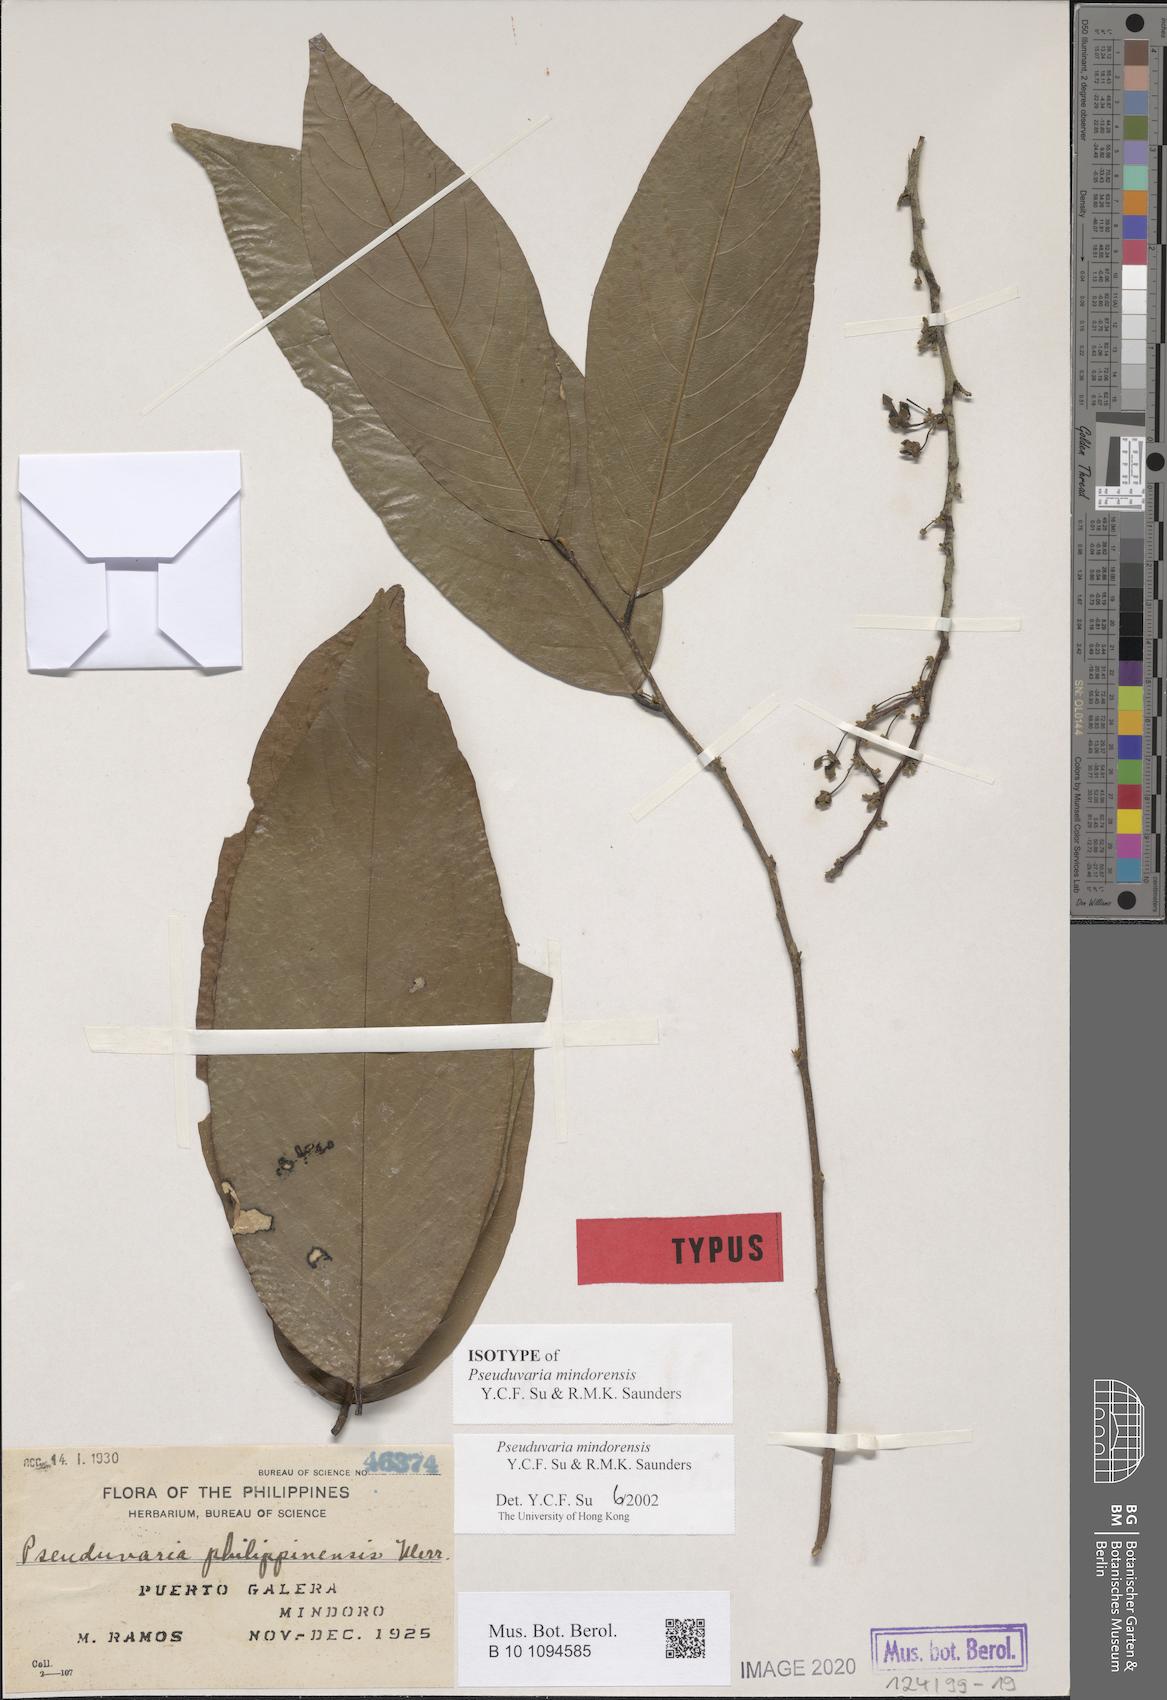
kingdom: Plantae
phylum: Tracheophyta
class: Magnoliopsida
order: Magnoliales
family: Annonaceae
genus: Pseuduvaria
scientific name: Pseuduvaria mindorensis
